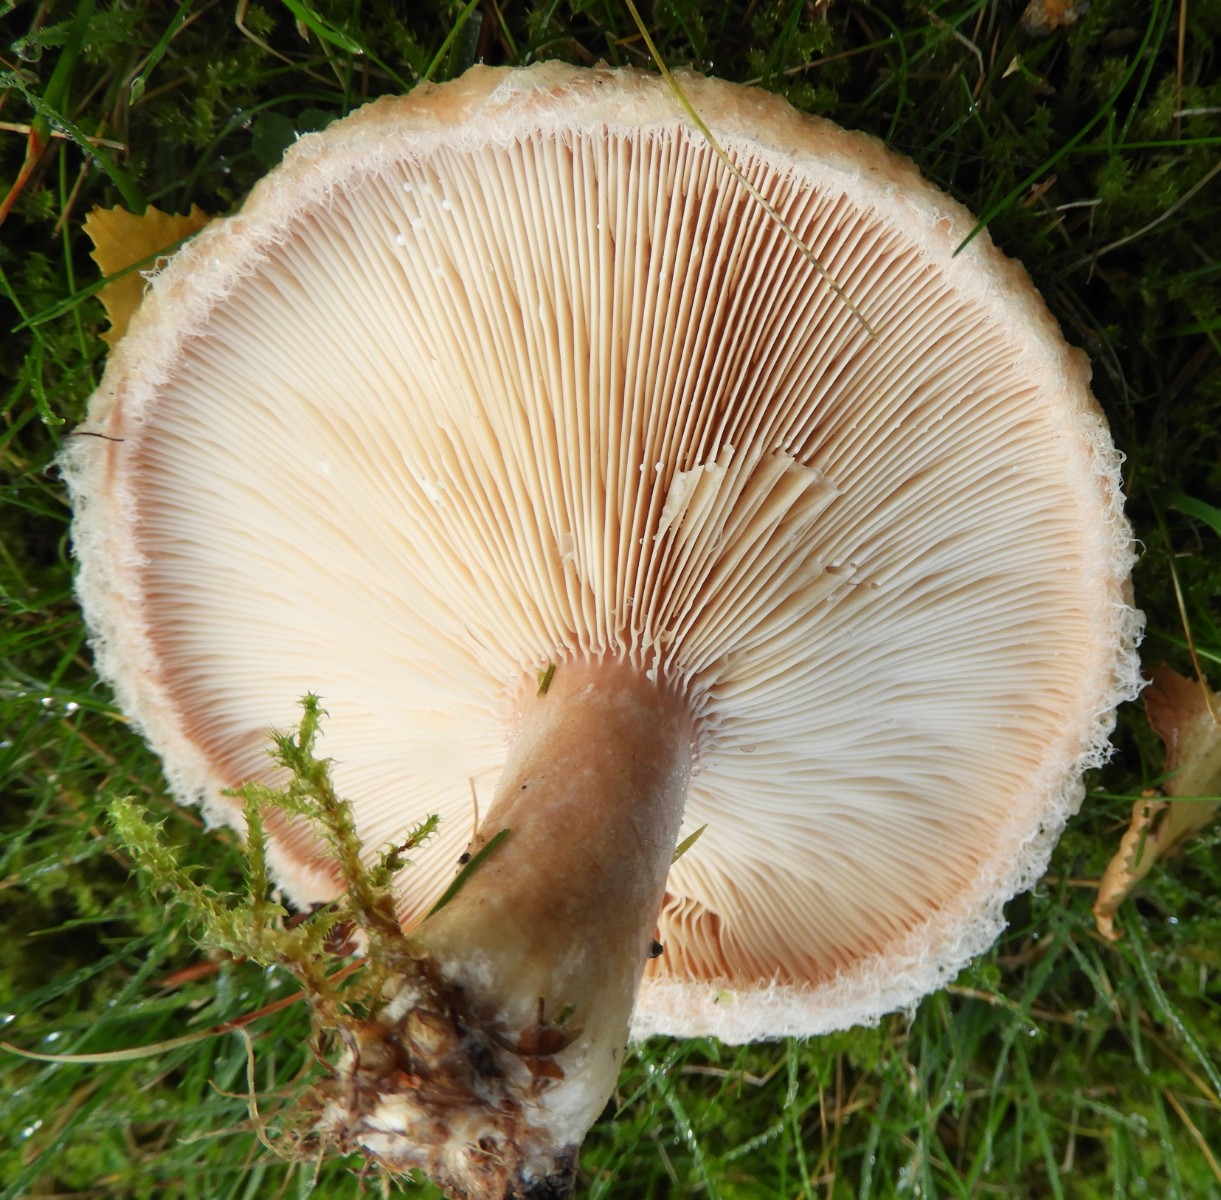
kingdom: Fungi
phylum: Basidiomycota
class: Agaricomycetes
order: Russulales
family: Russulaceae
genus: Lactarius
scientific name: Lactarius pubescens
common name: dunet mælkehat
